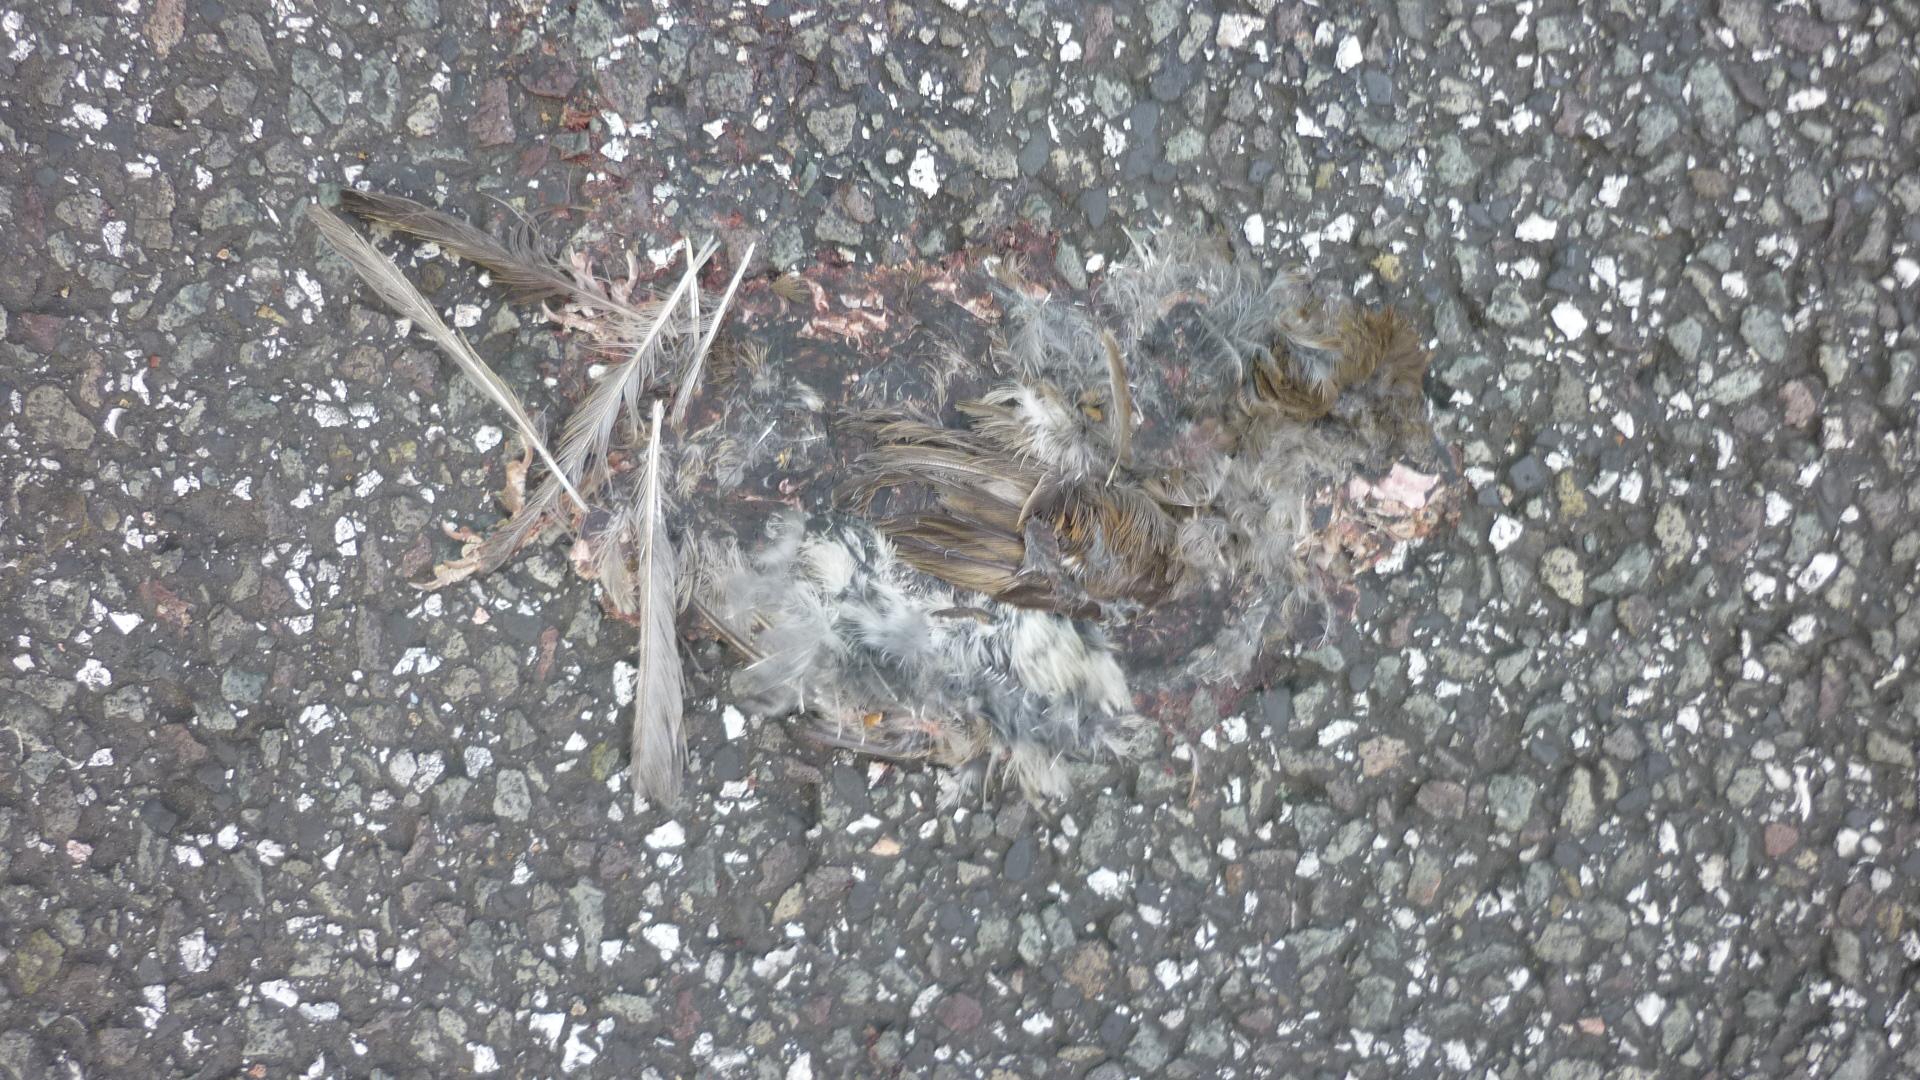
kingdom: Animalia
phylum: Chordata
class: Aves
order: Passeriformes
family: Passeridae
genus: Passer
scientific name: Passer
